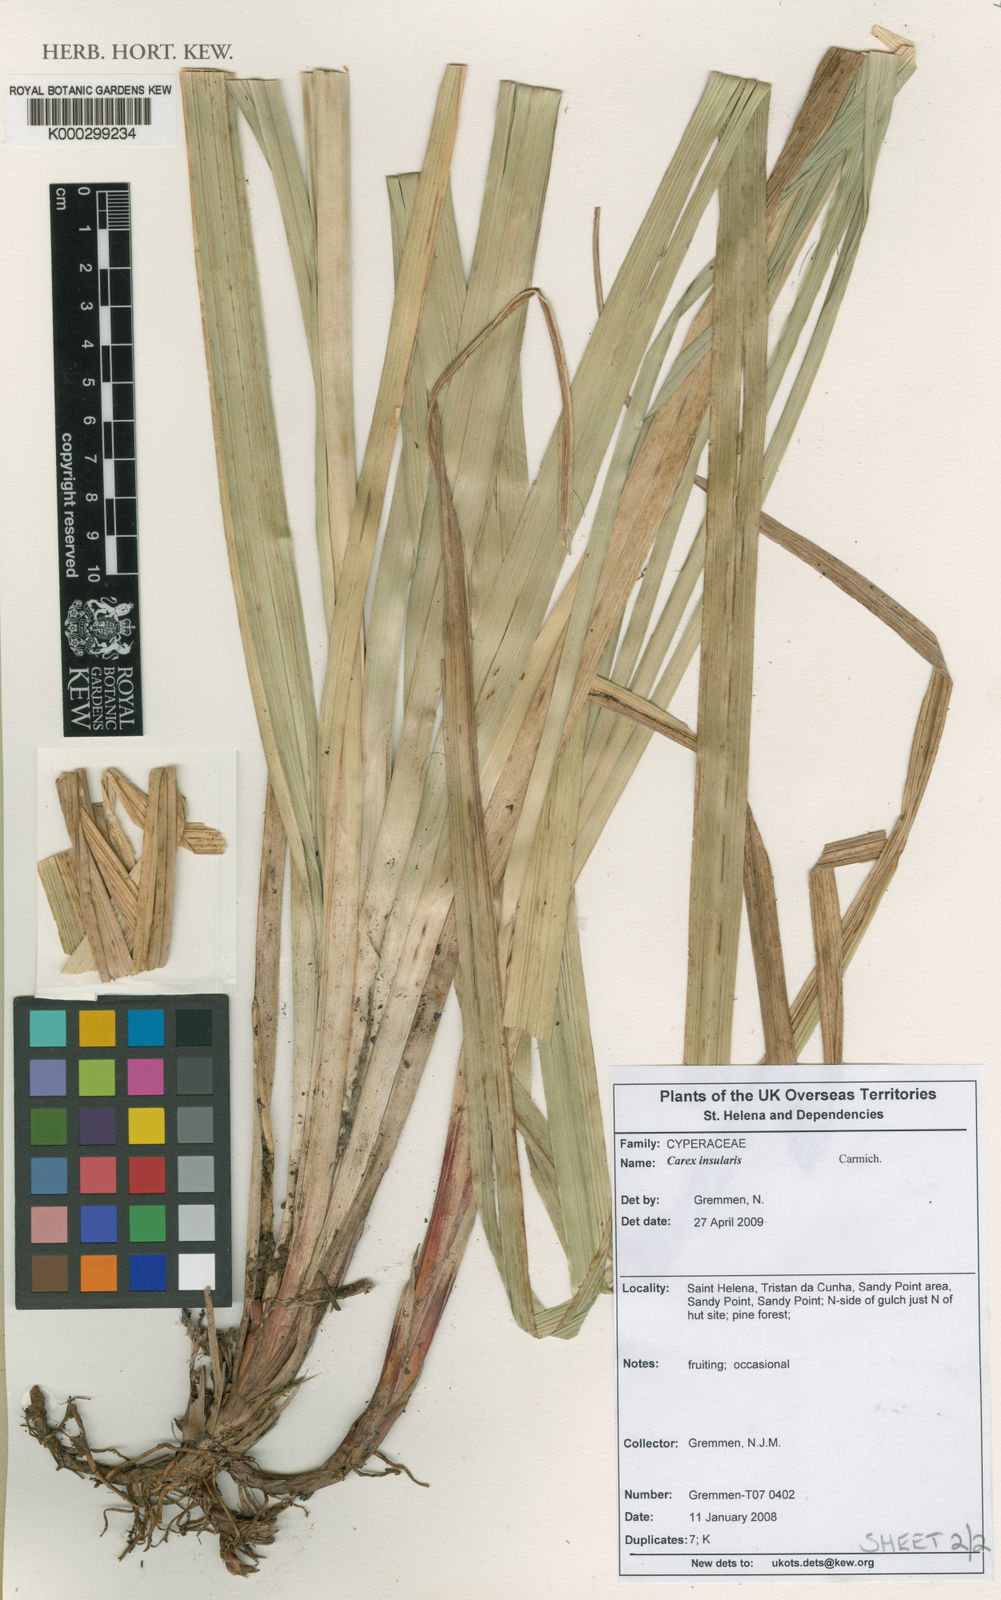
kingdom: Plantae
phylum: Tracheophyta
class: Liliopsida
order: Poales
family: Cyperaceae
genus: Carex
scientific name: Carex insularis
